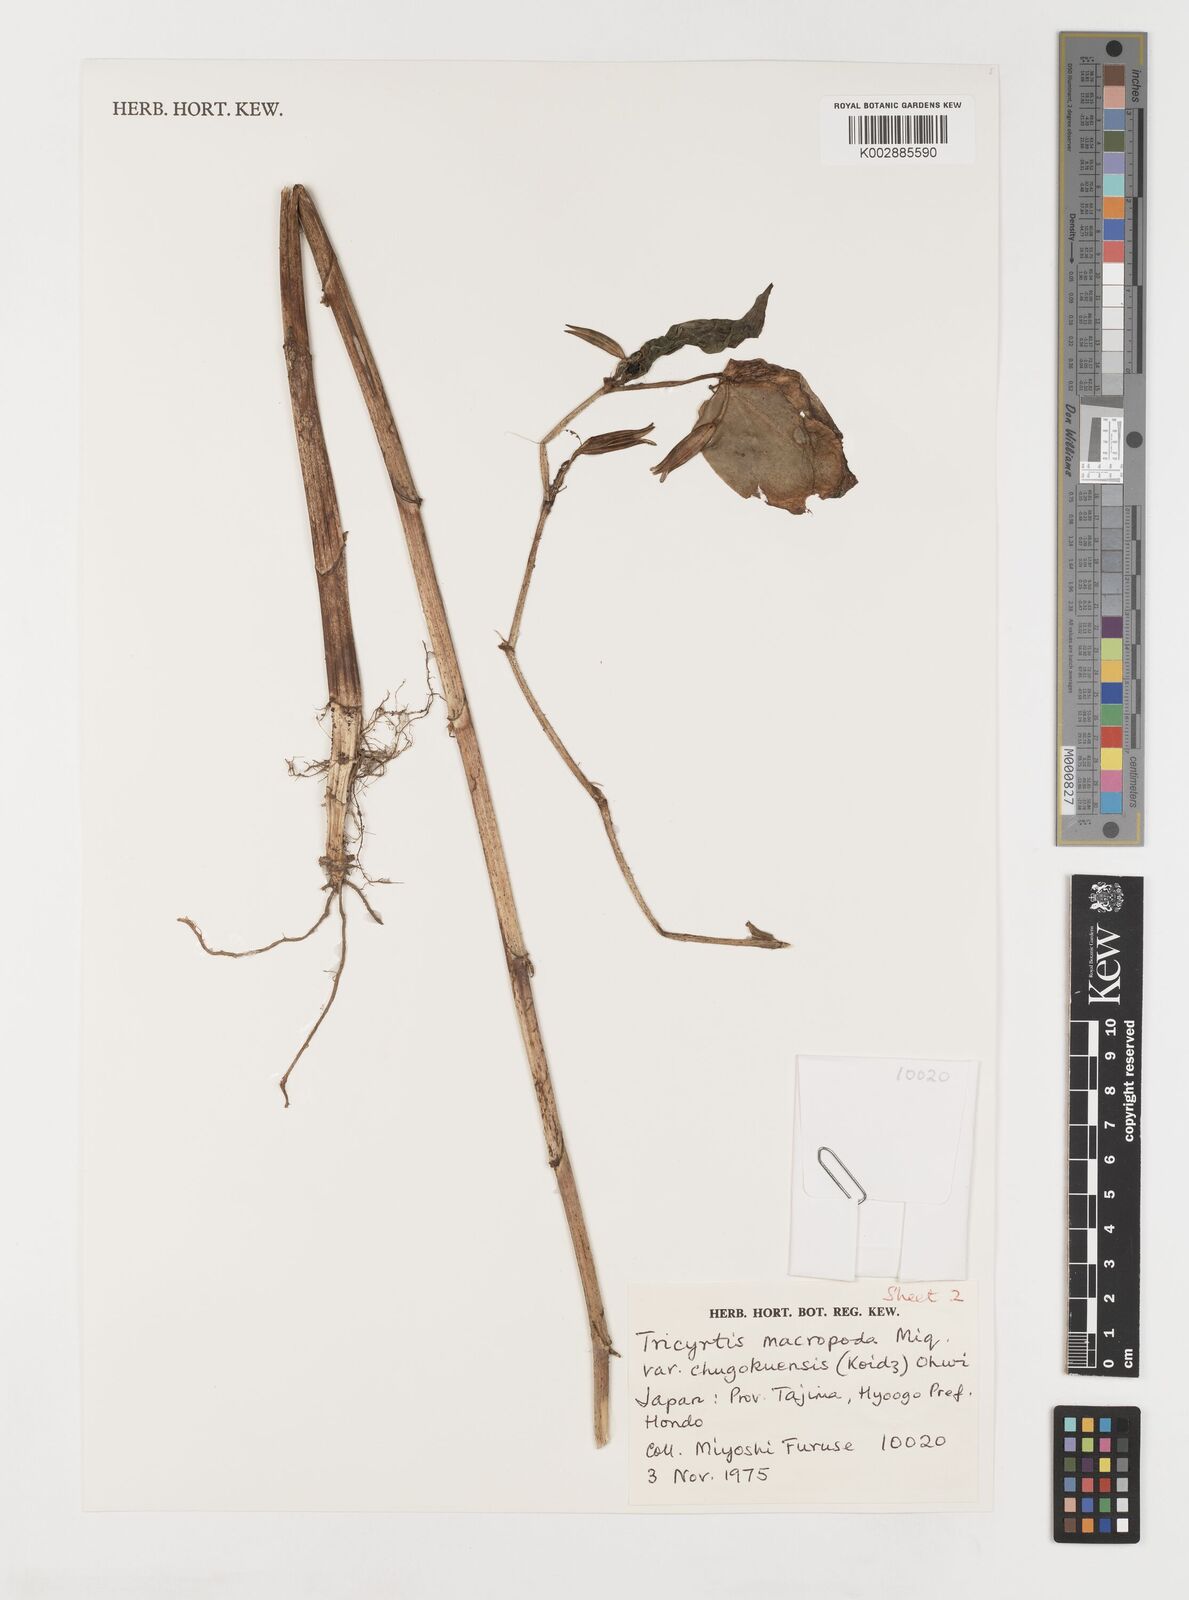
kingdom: Plantae
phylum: Tracheophyta
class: Liliopsida
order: Liliales
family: Liliaceae
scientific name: Liliaceae
